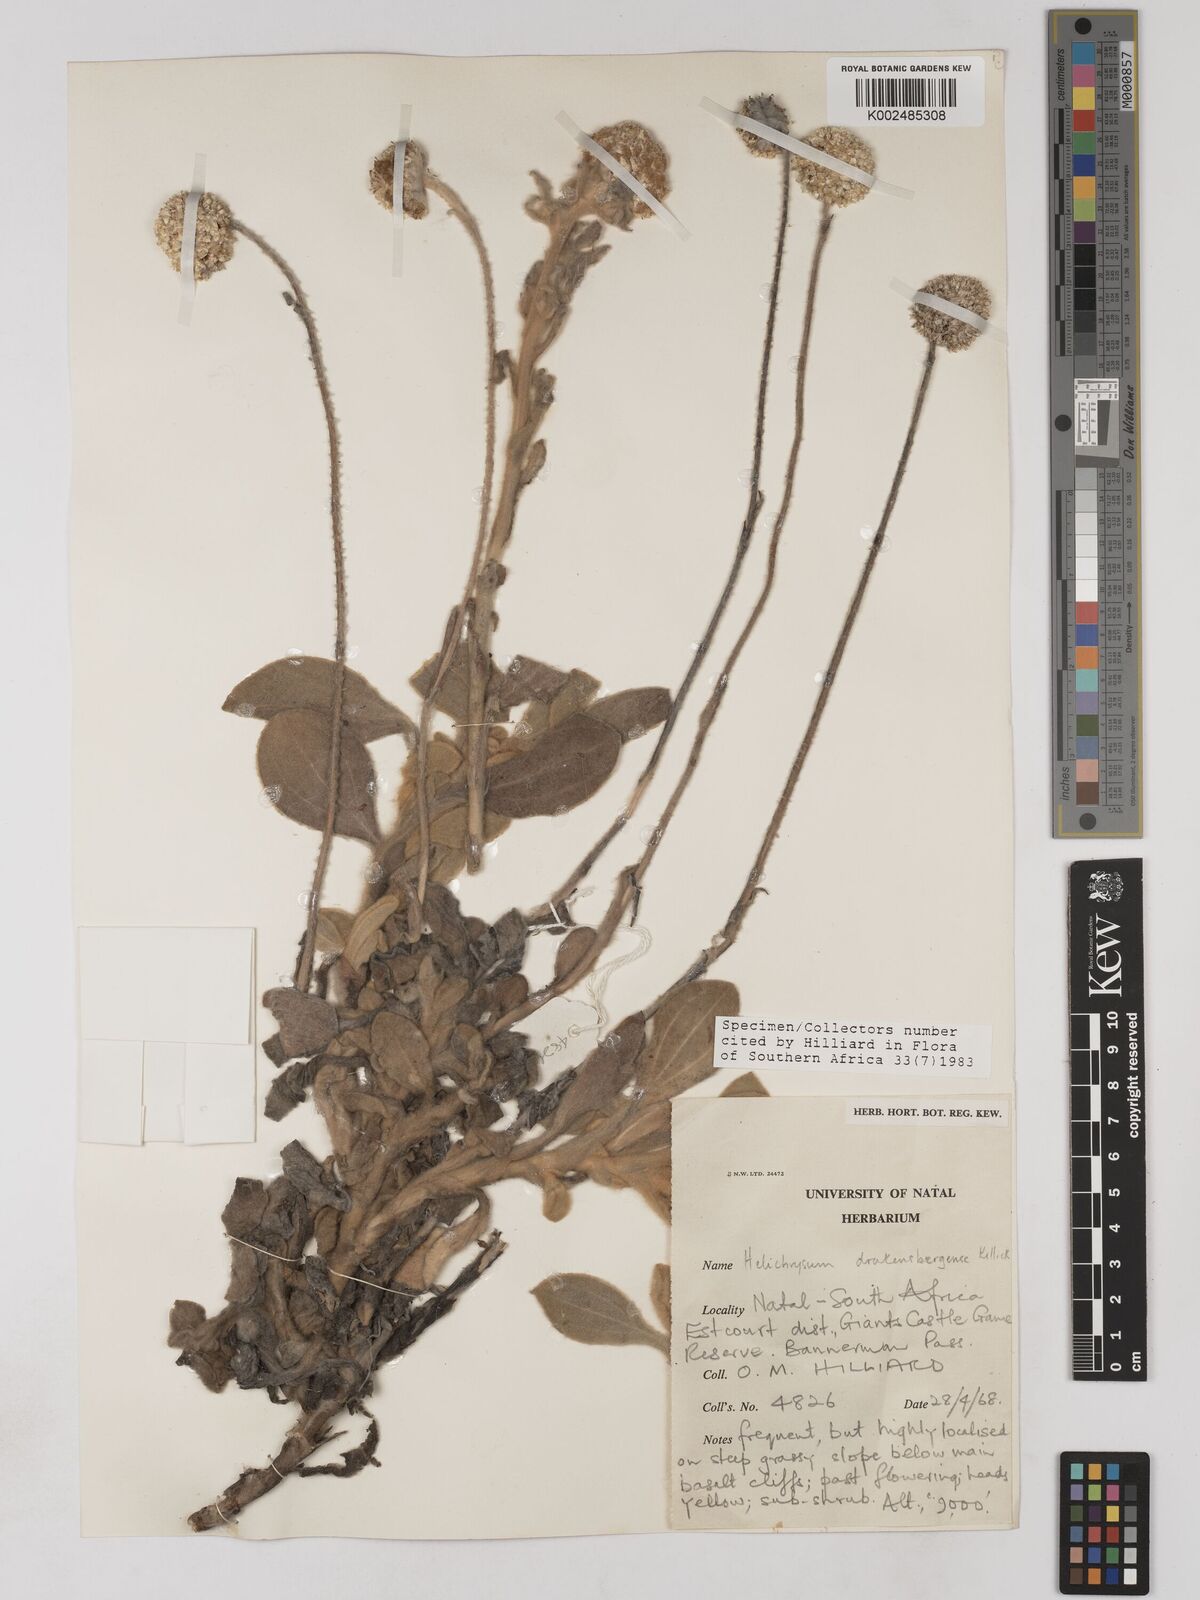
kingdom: Plantae
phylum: Tracheophyta
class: Magnoliopsida
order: Asterales
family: Asteraceae
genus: Helichrysum
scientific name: Helichrysum drakensbergense
